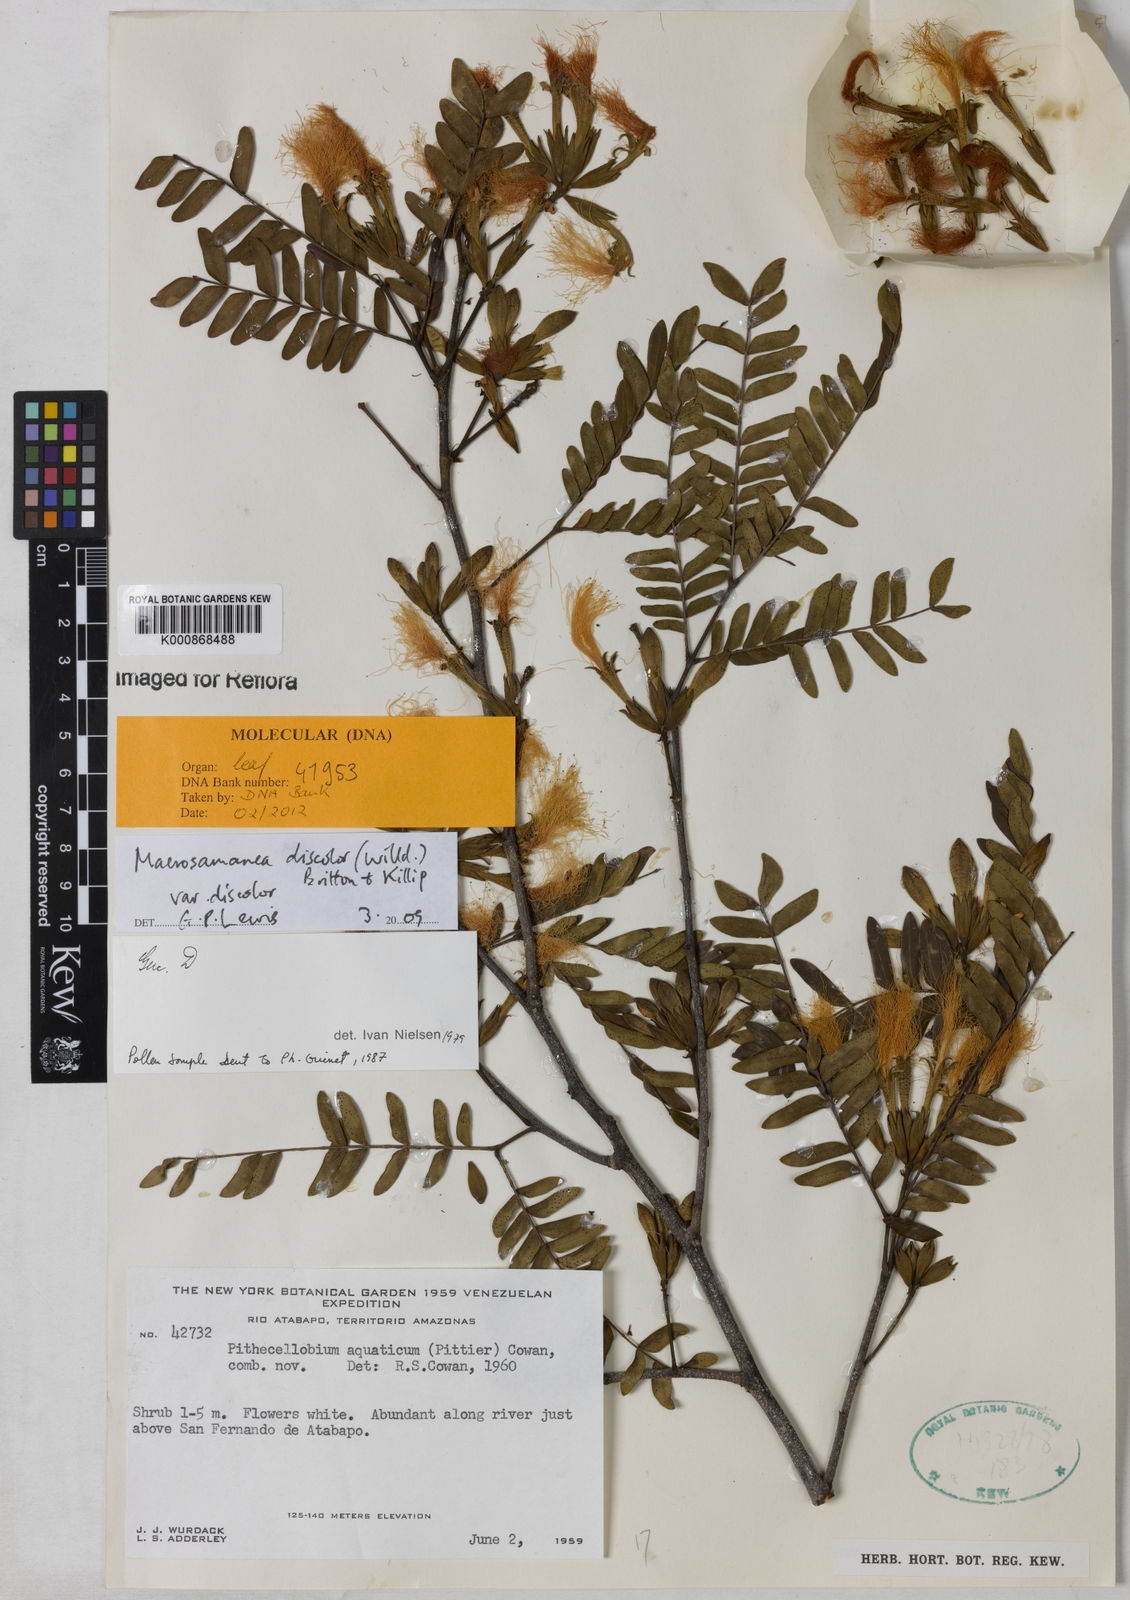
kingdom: Plantae
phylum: Tracheophyta
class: Magnoliopsida
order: Fabales
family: Fabaceae
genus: Macrosamanea
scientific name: Macrosamanea discolor
